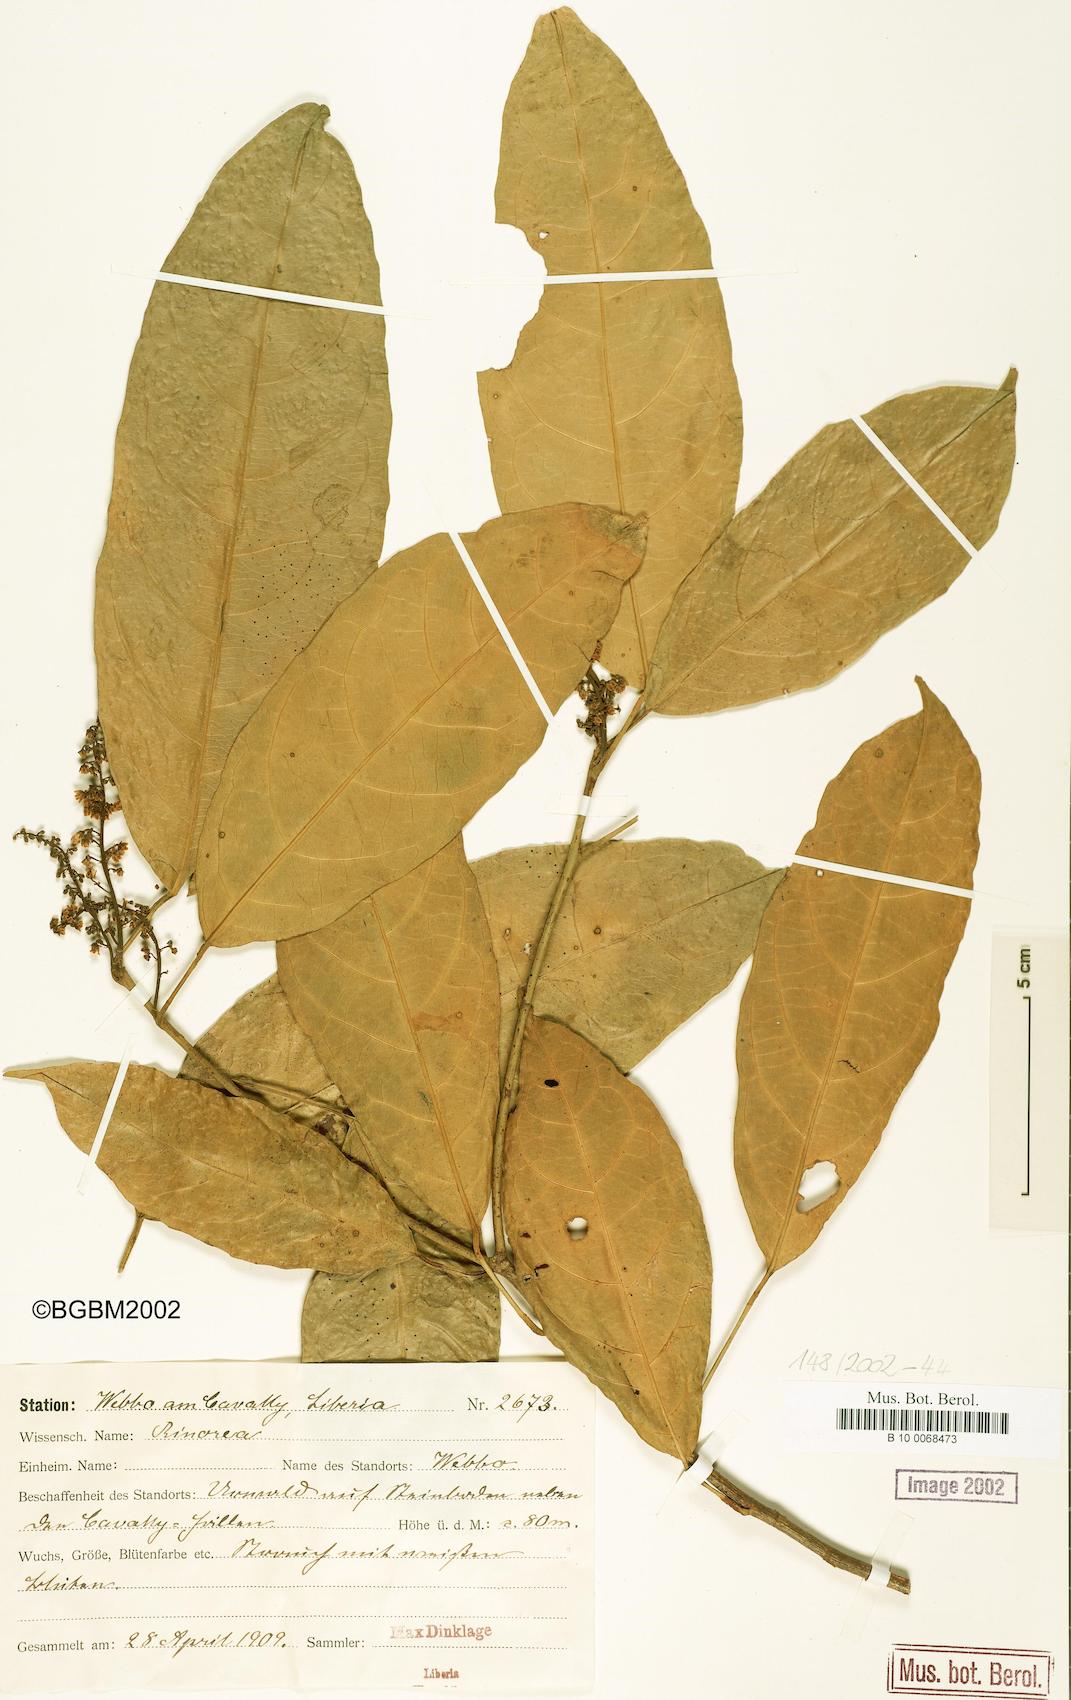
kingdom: Plantae
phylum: Tracheophyta
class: Magnoliopsida
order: Malpighiales
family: Violaceae
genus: Rinorea
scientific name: Rinorea
